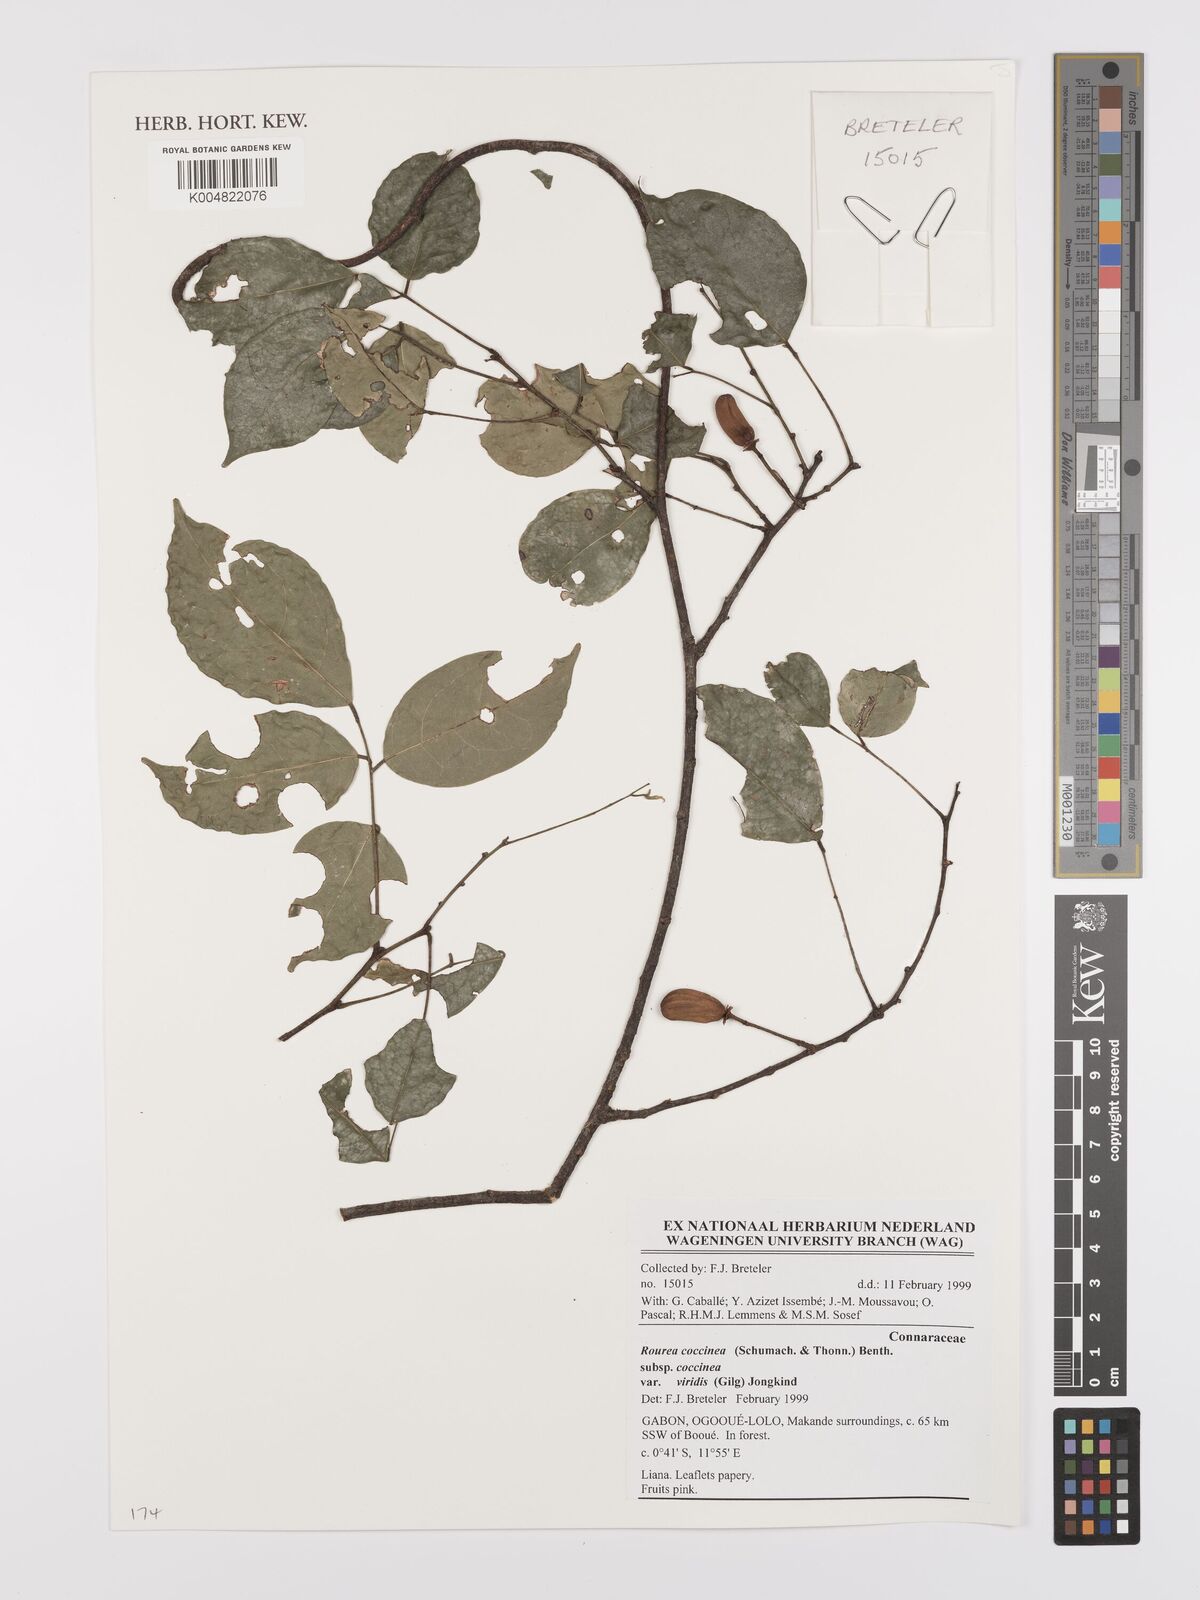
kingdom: Plantae
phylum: Tracheophyta
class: Magnoliopsida
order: Oxalidales
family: Connaraceae
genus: Rourea
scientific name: Rourea coccinea
